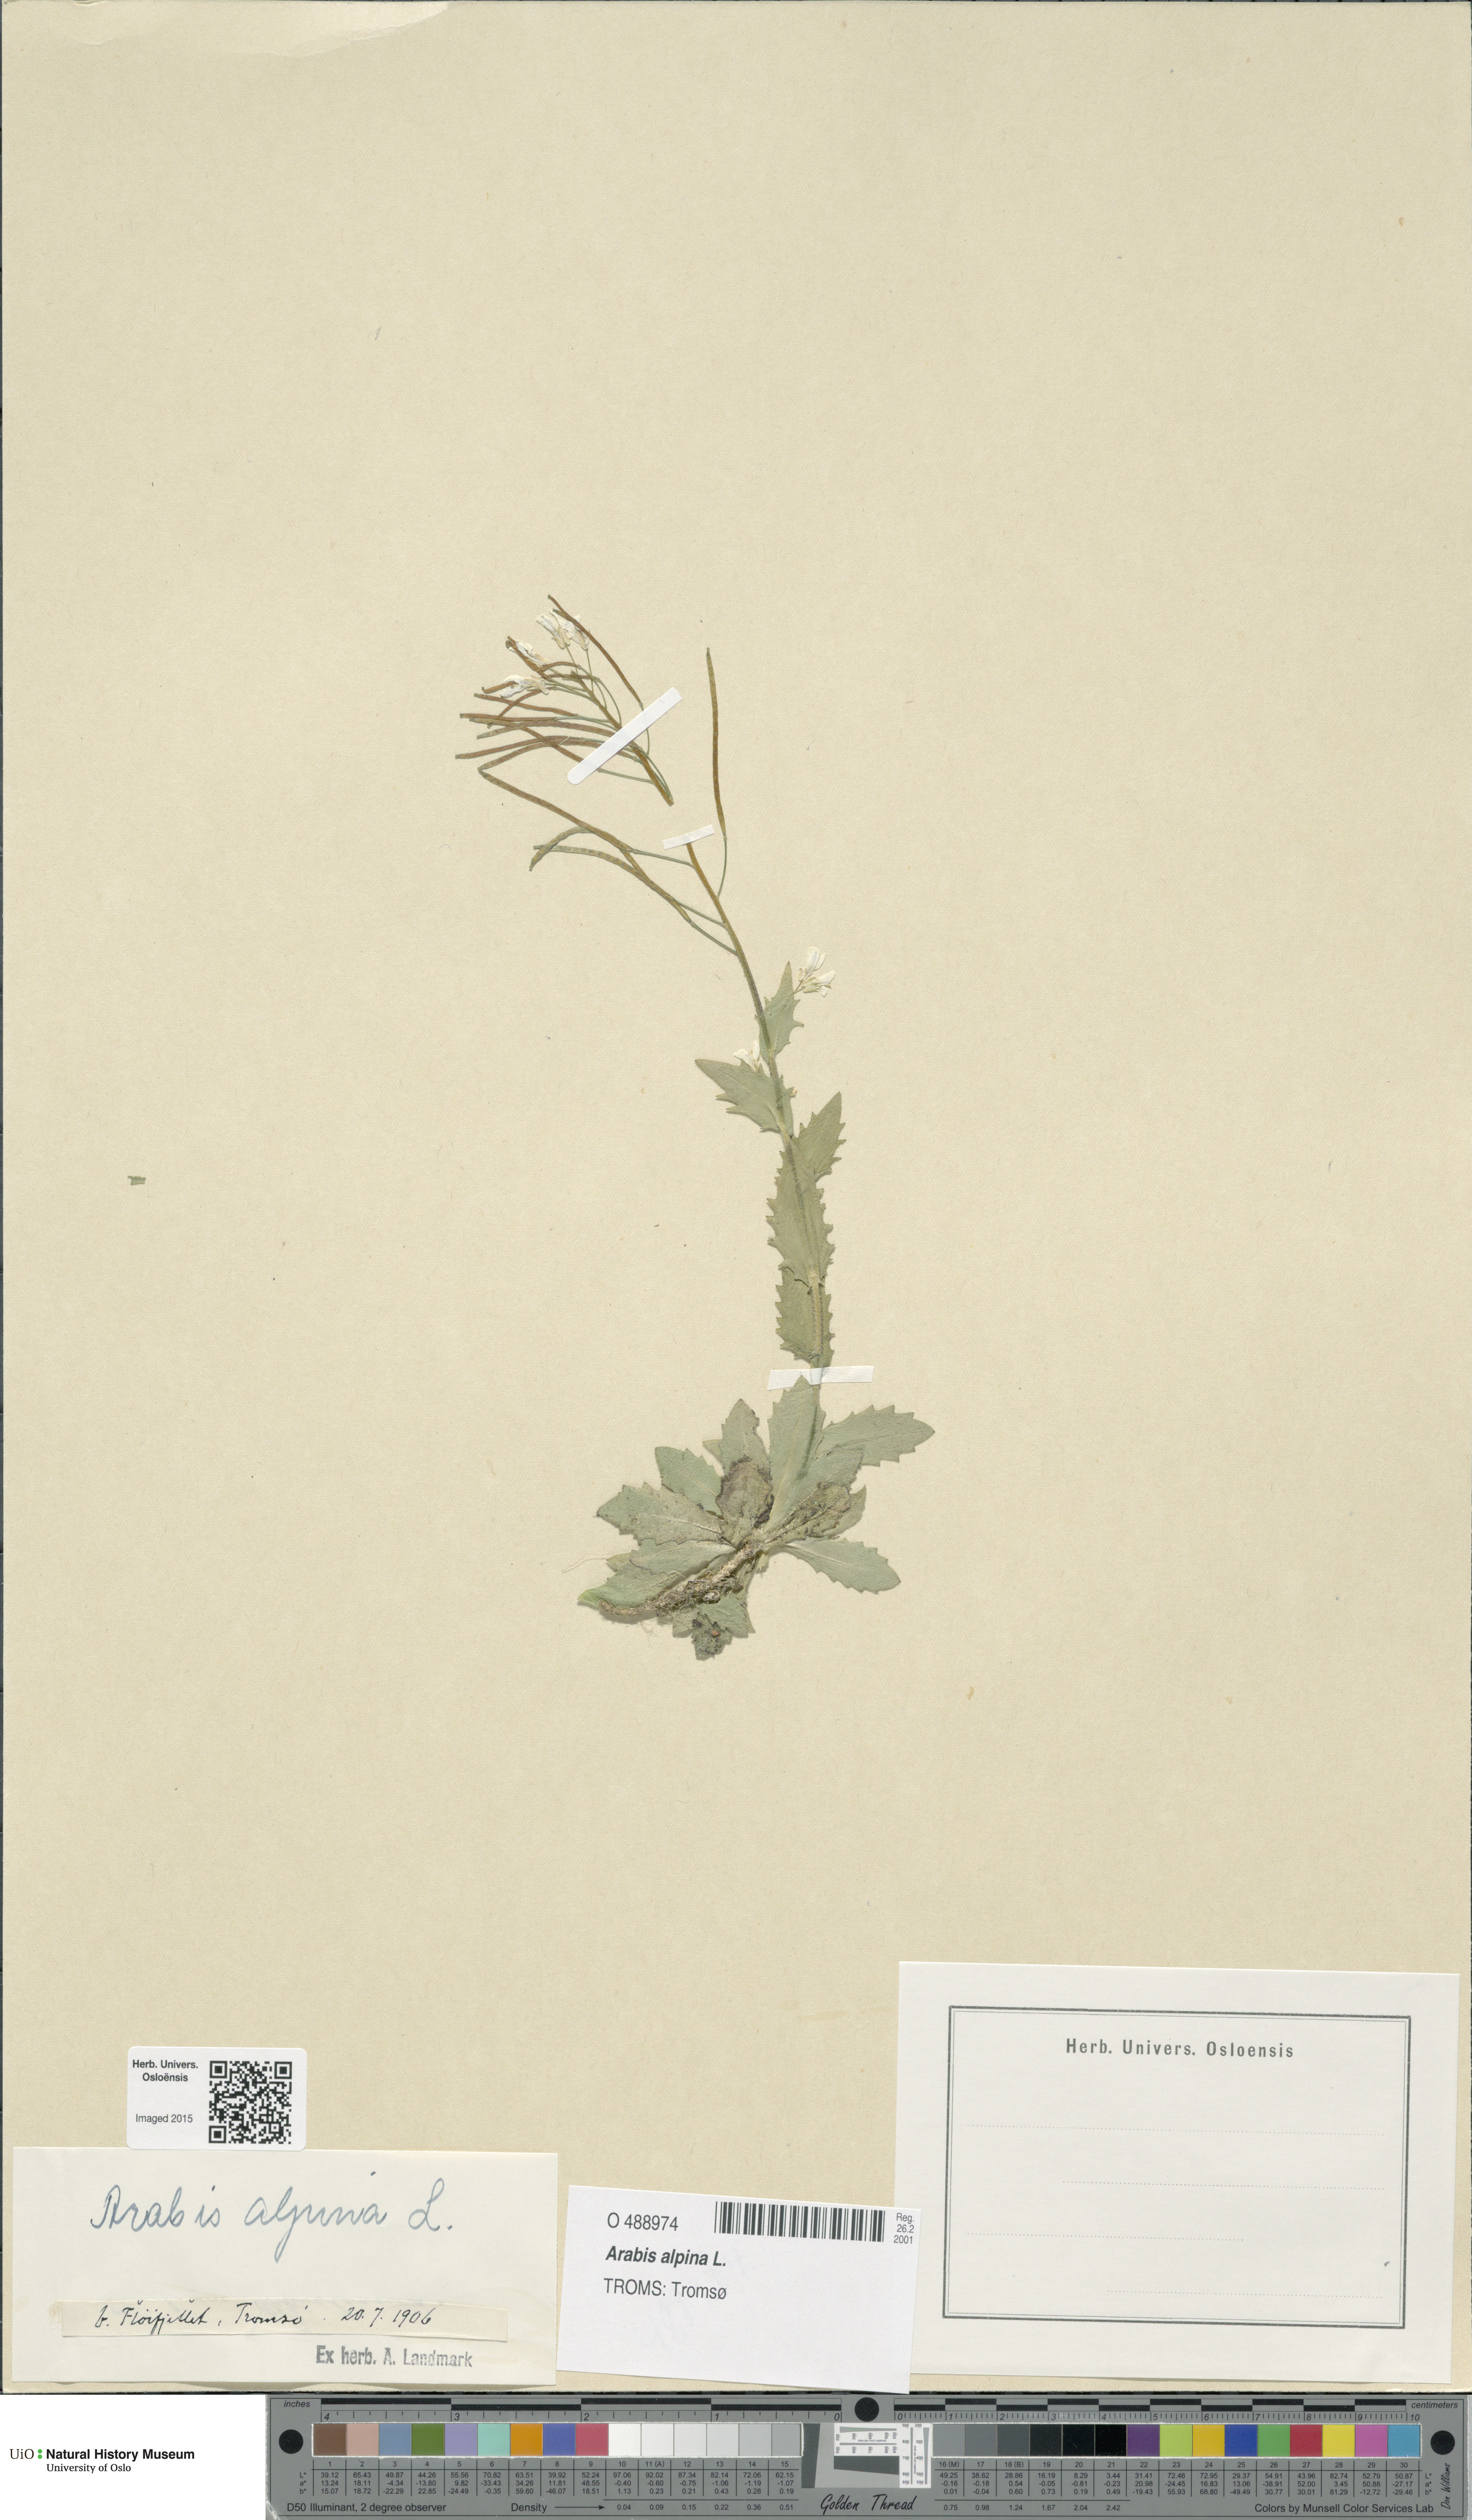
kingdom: Plantae
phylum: Tracheophyta
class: Magnoliopsida
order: Brassicales
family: Brassicaceae
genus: Arabis
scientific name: Arabis alpina
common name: Alpine rock-cress
